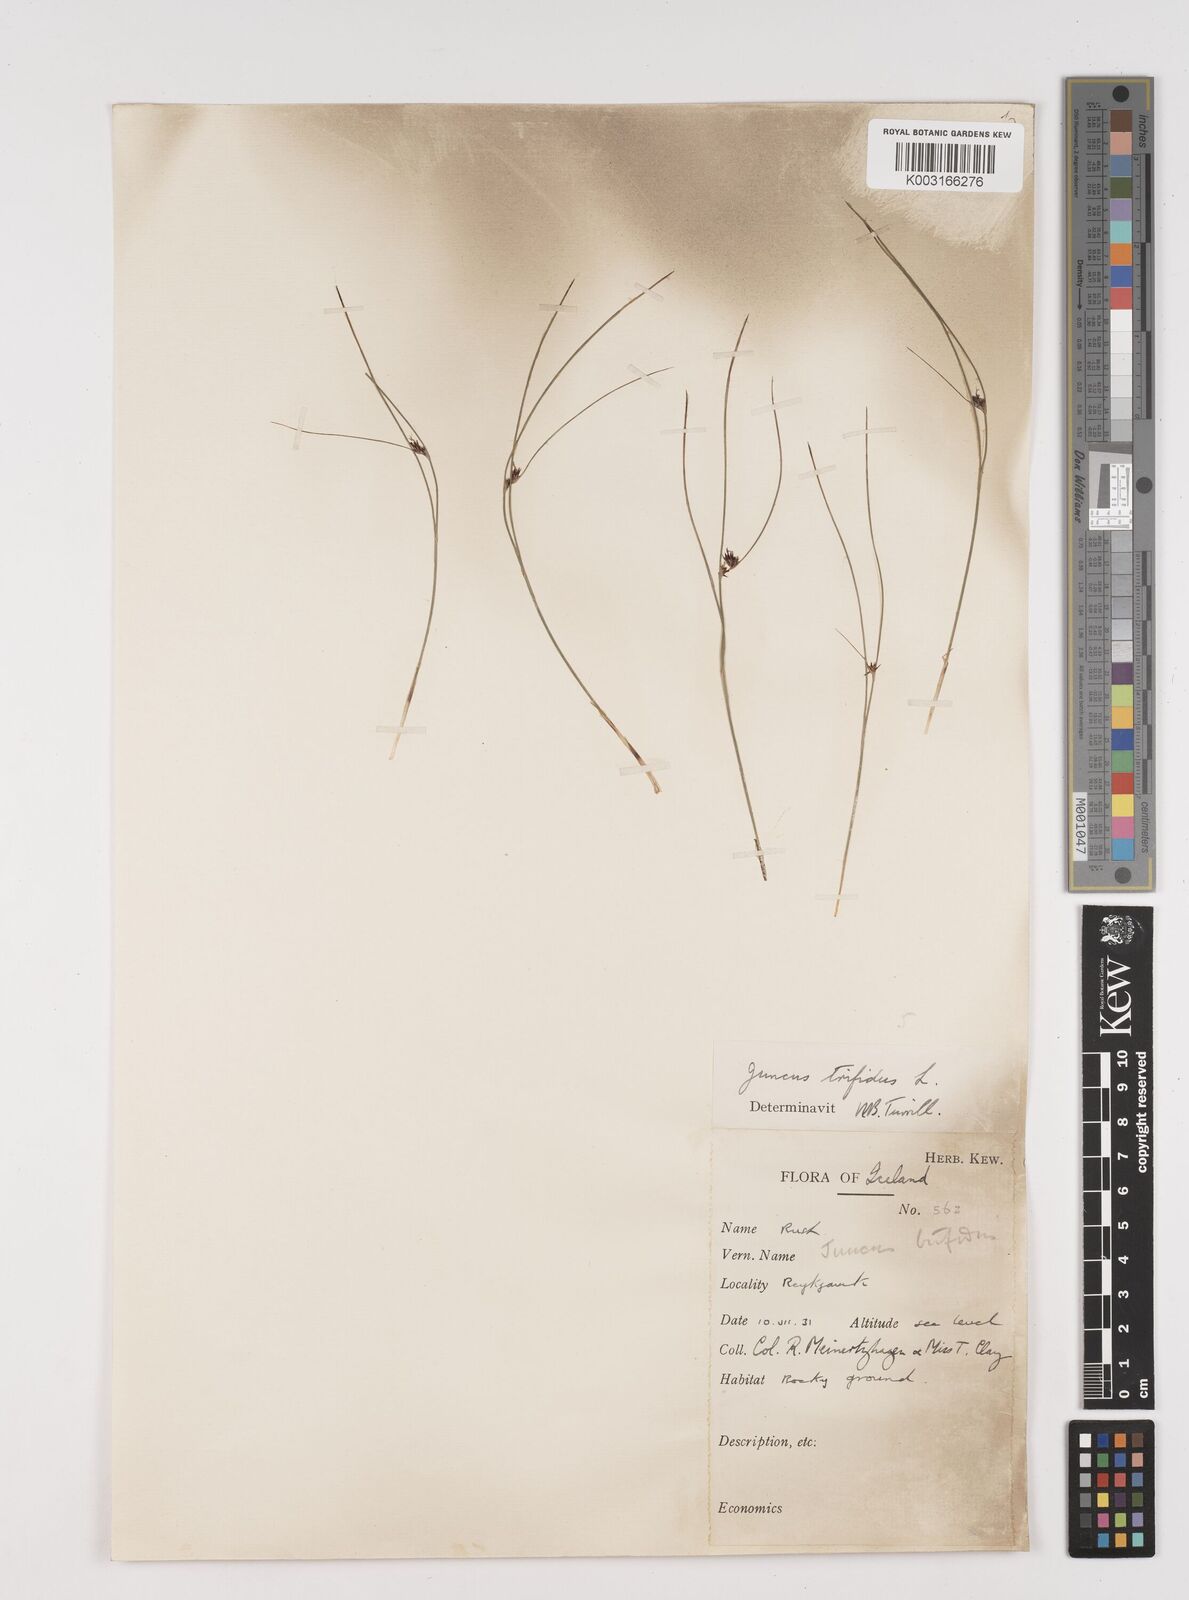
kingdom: Plantae
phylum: Tracheophyta
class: Liliopsida
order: Poales
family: Juncaceae
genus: Oreojuncus
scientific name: Oreojuncus trifidus
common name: Highland rush
